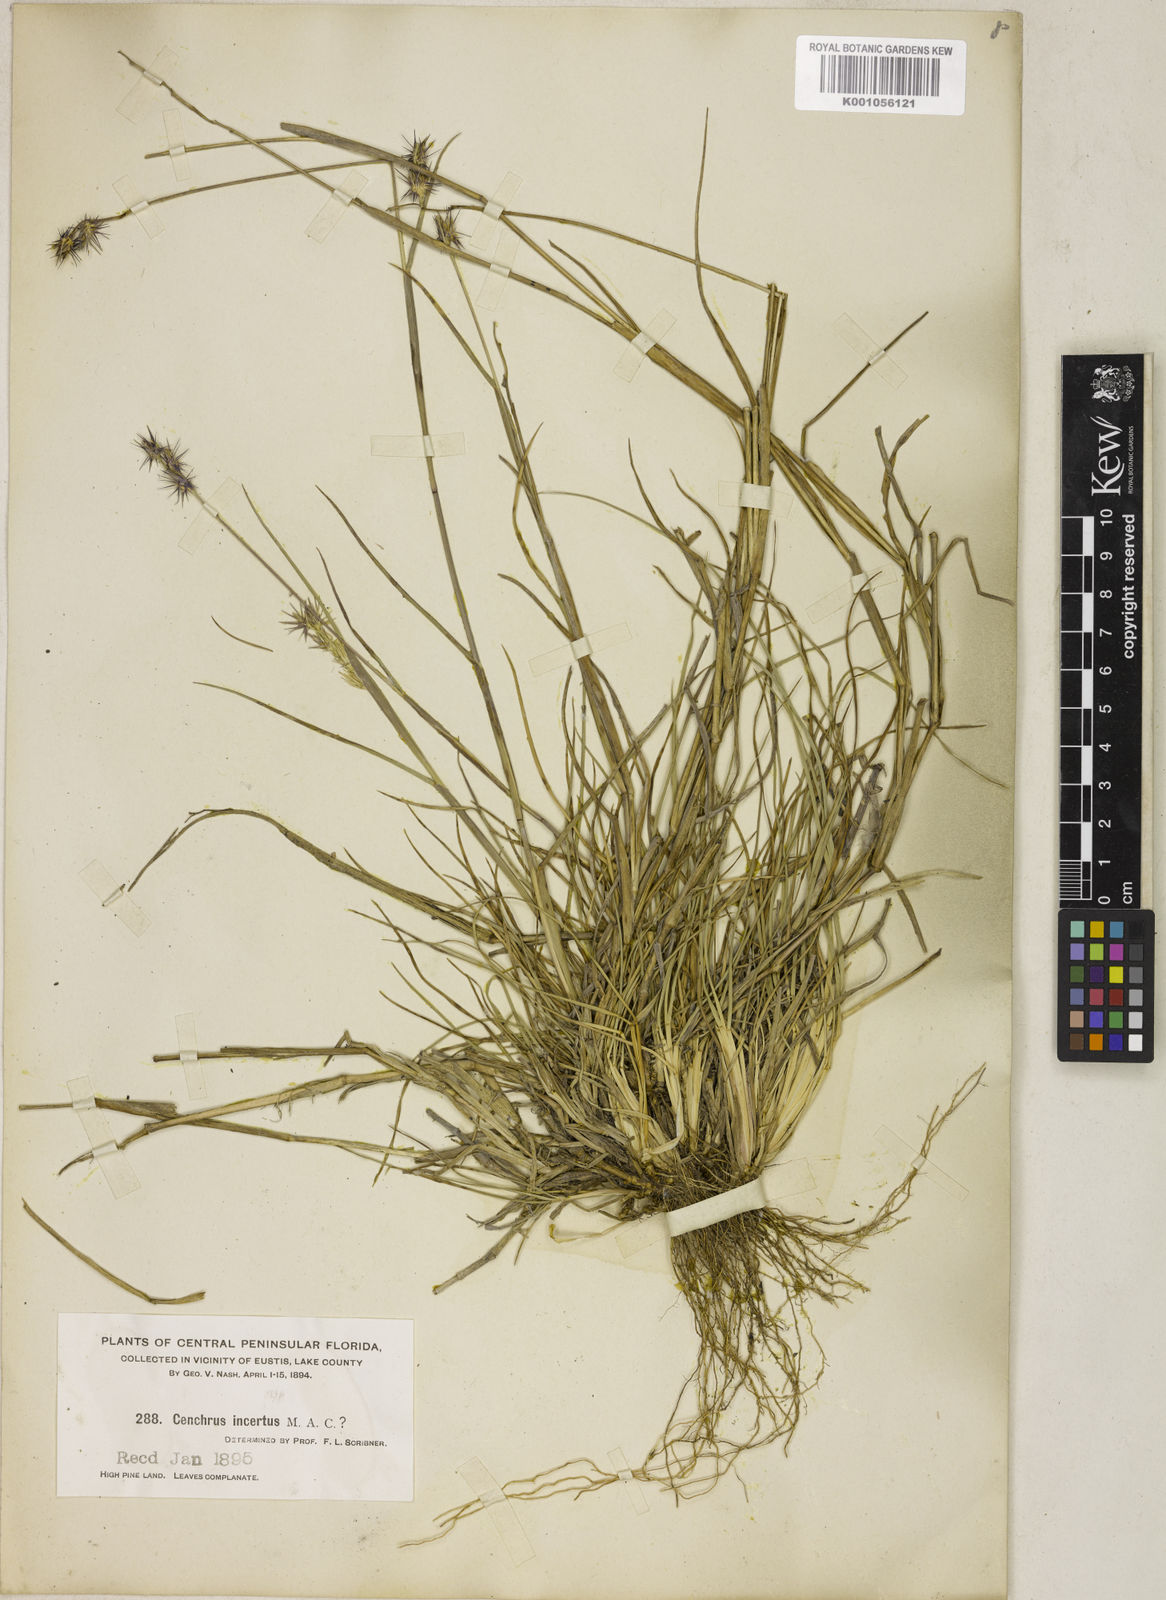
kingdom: Plantae
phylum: Tracheophyta
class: Liliopsida
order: Poales
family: Poaceae
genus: Cenchrus
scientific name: Cenchrus gracillimus
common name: Slender sandbur
